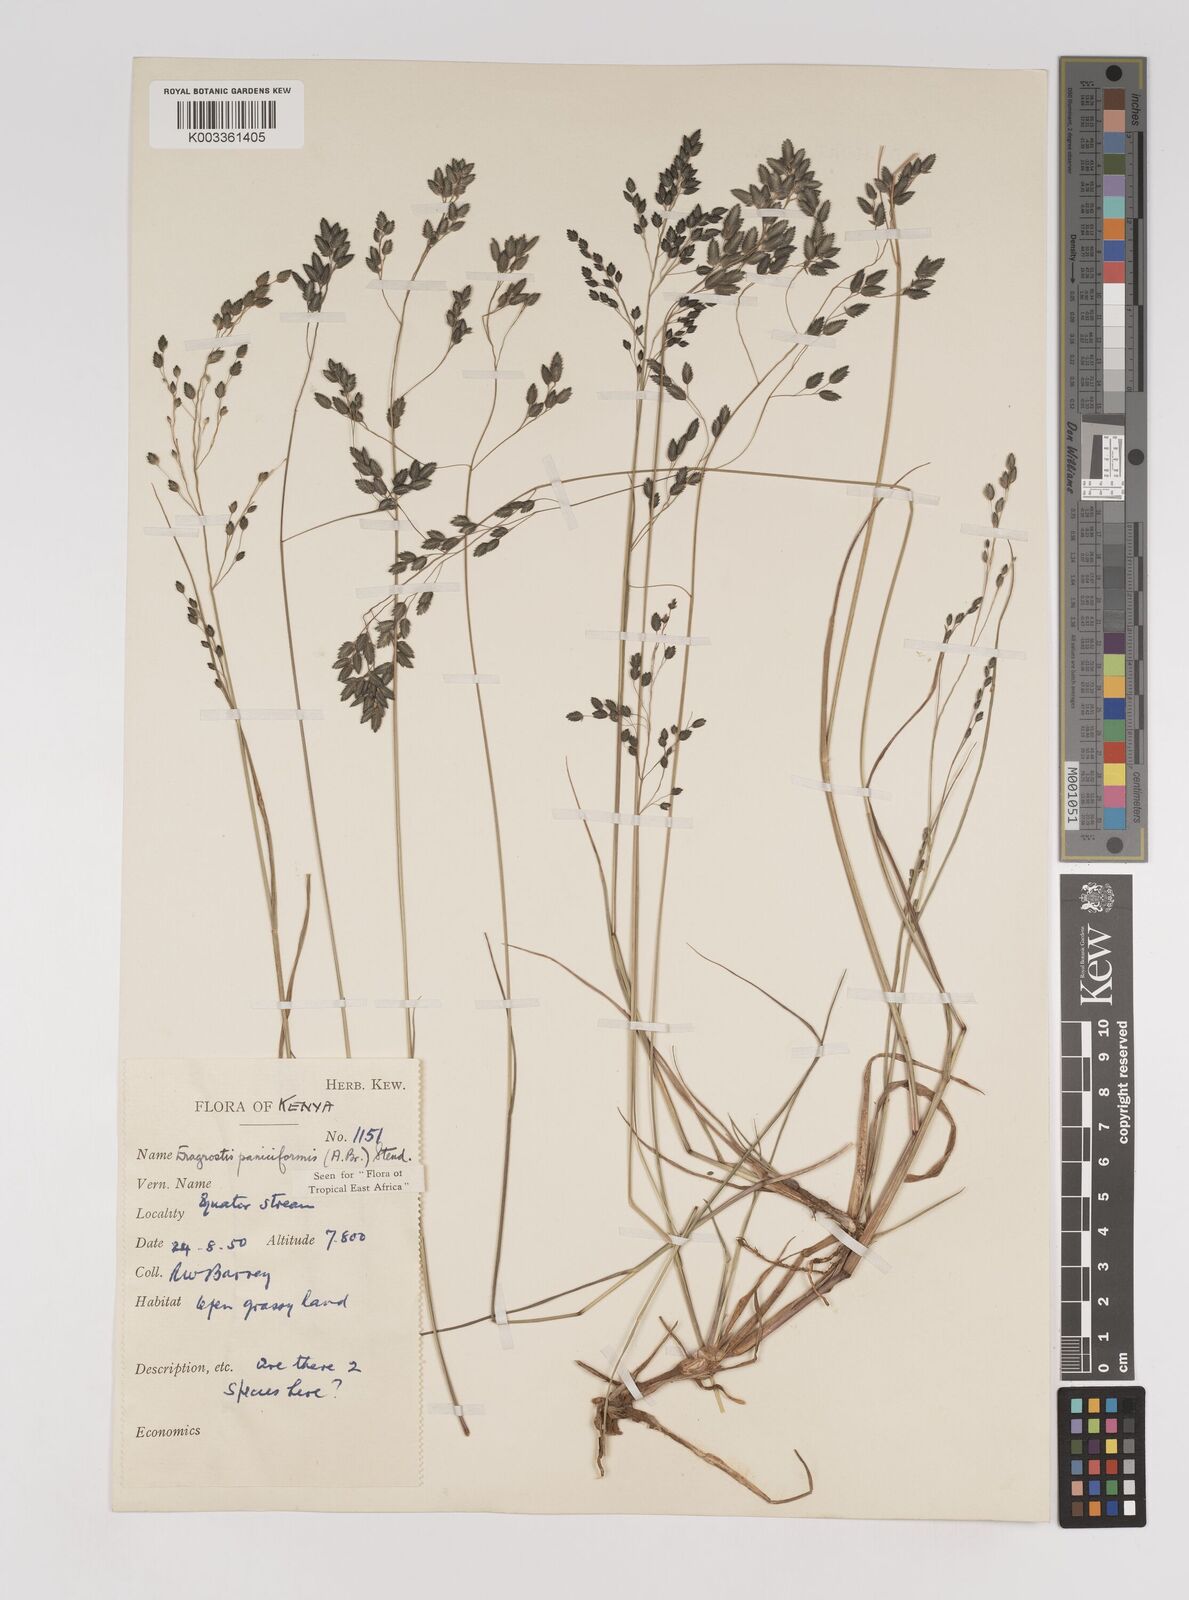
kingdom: Plantae
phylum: Tracheophyta
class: Liliopsida
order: Poales
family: Poaceae
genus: Eragrostis
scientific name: Eragrostis paniciformis
